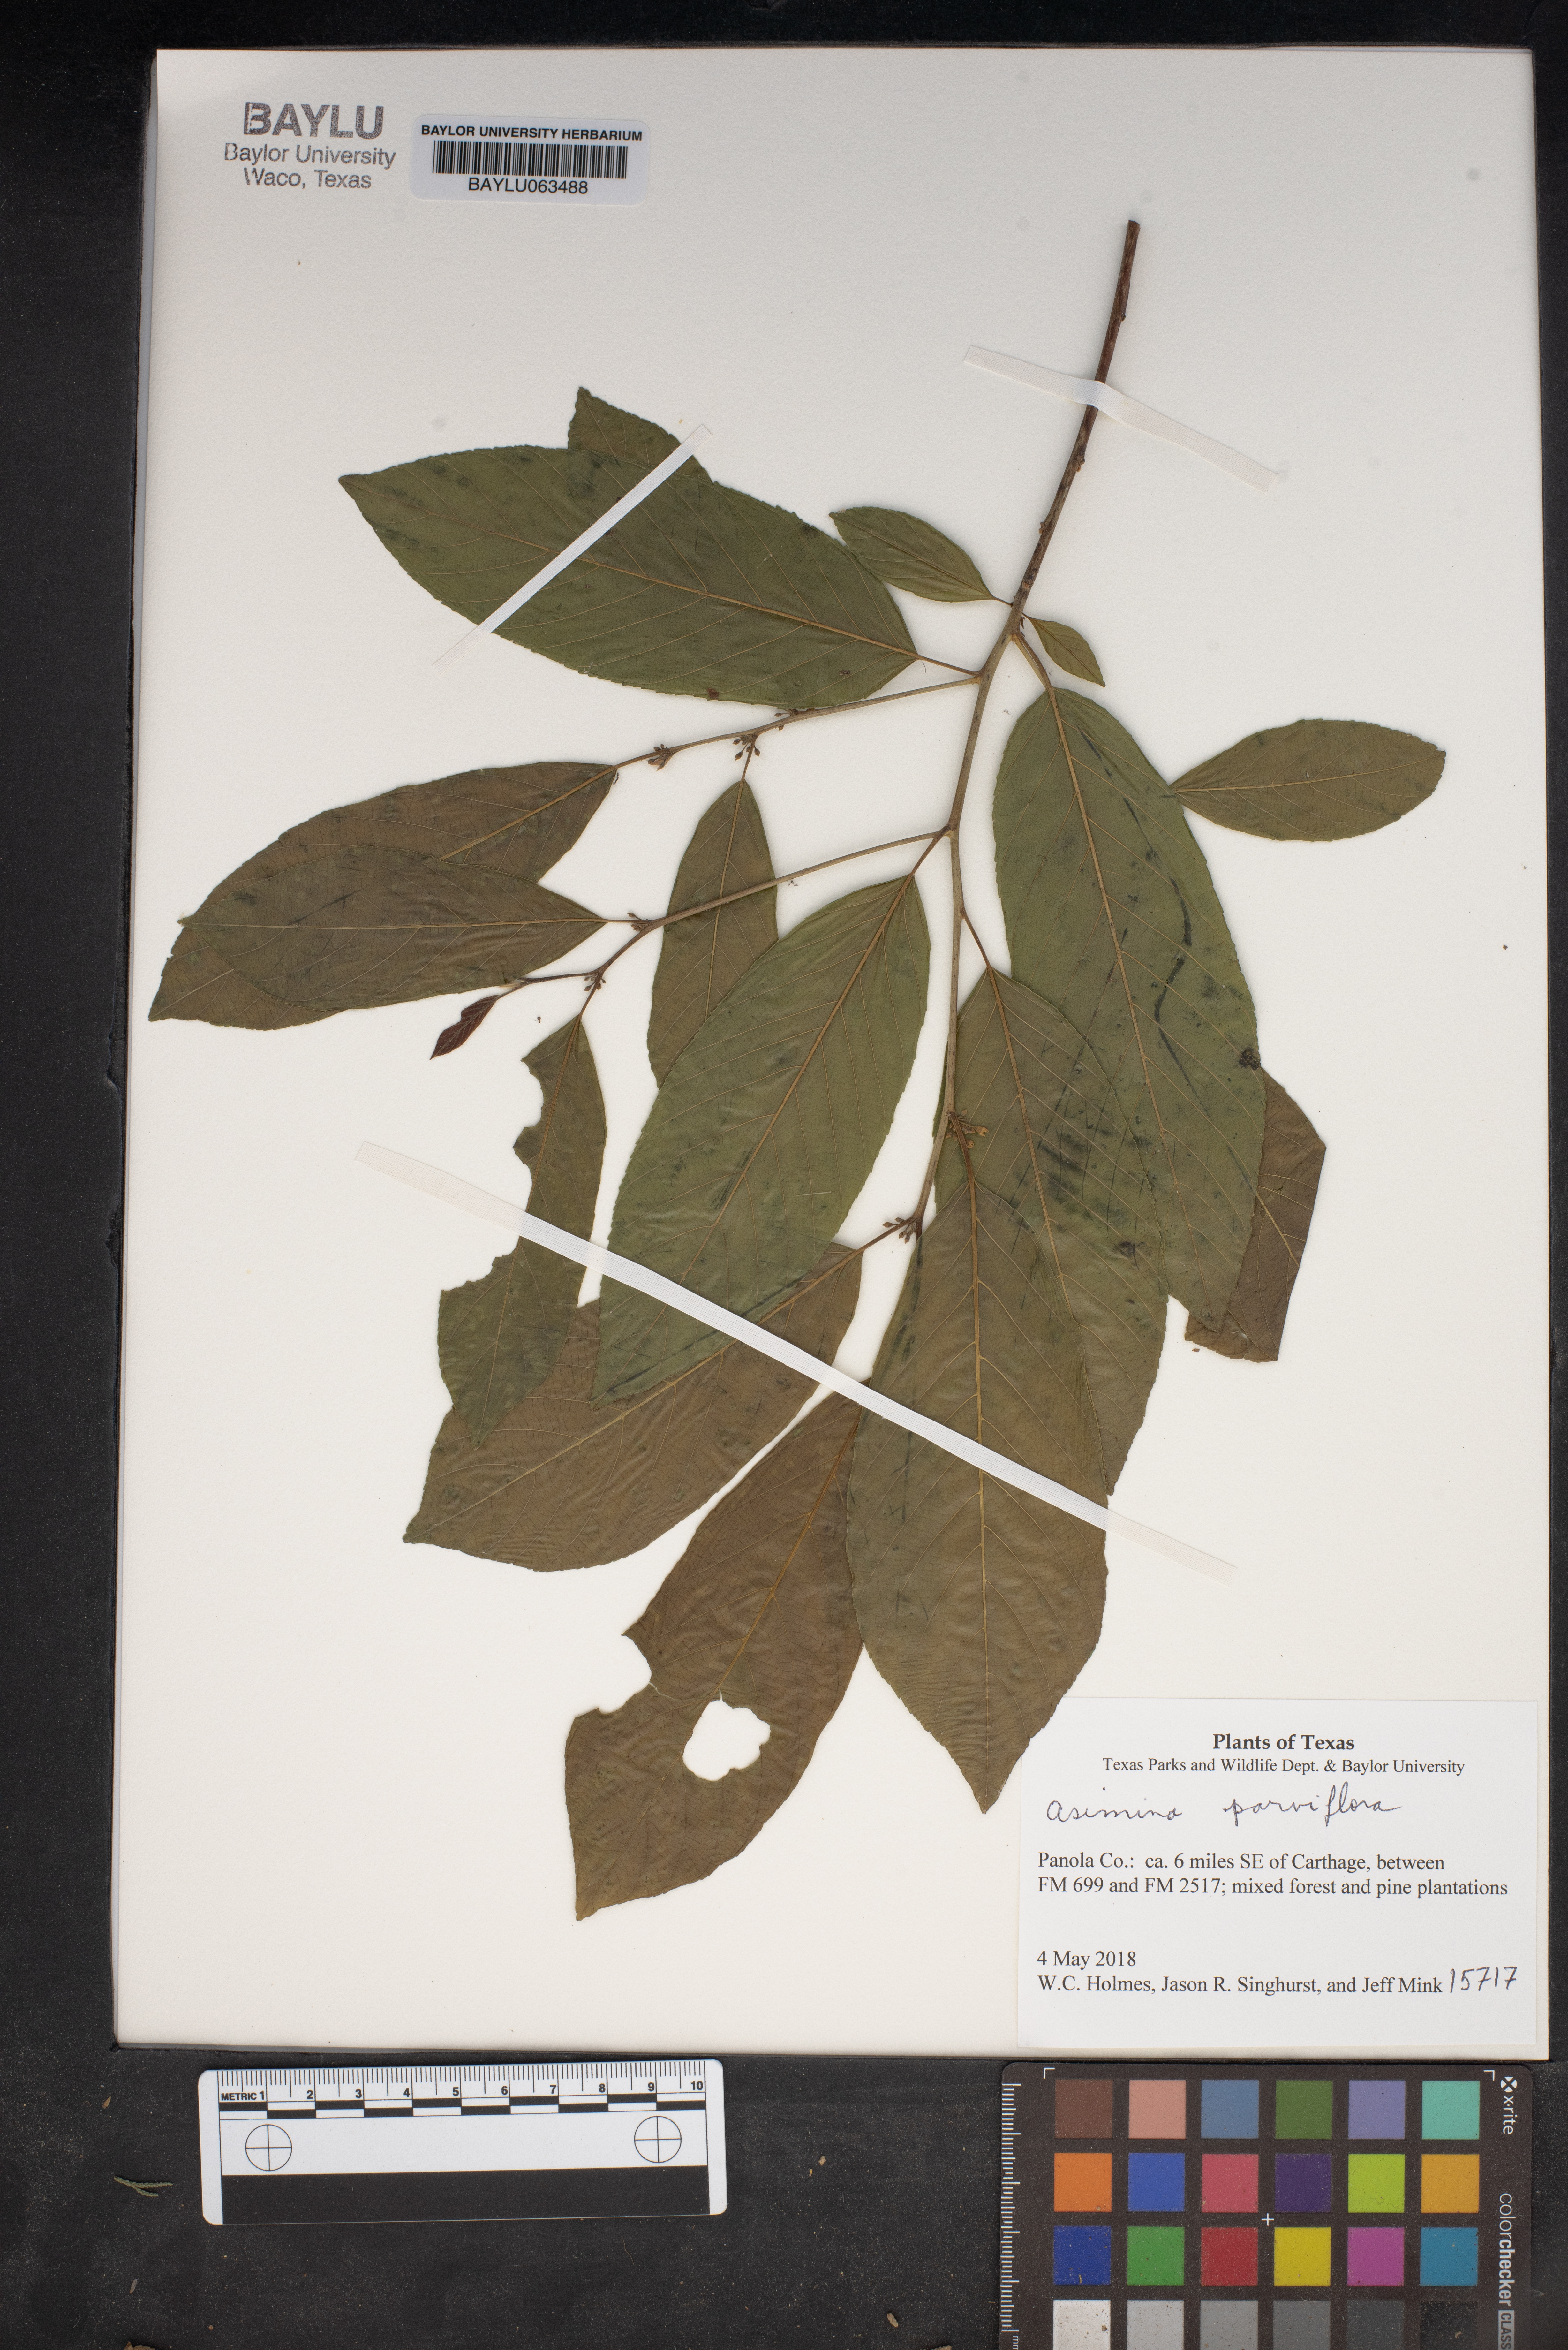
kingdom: Plantae
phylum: Tracheophyta
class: Magnoliopsida
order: Magnoliales
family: Annonaceae
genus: Asimina
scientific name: Asimina parviflora
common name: Dwarf pawpaw
